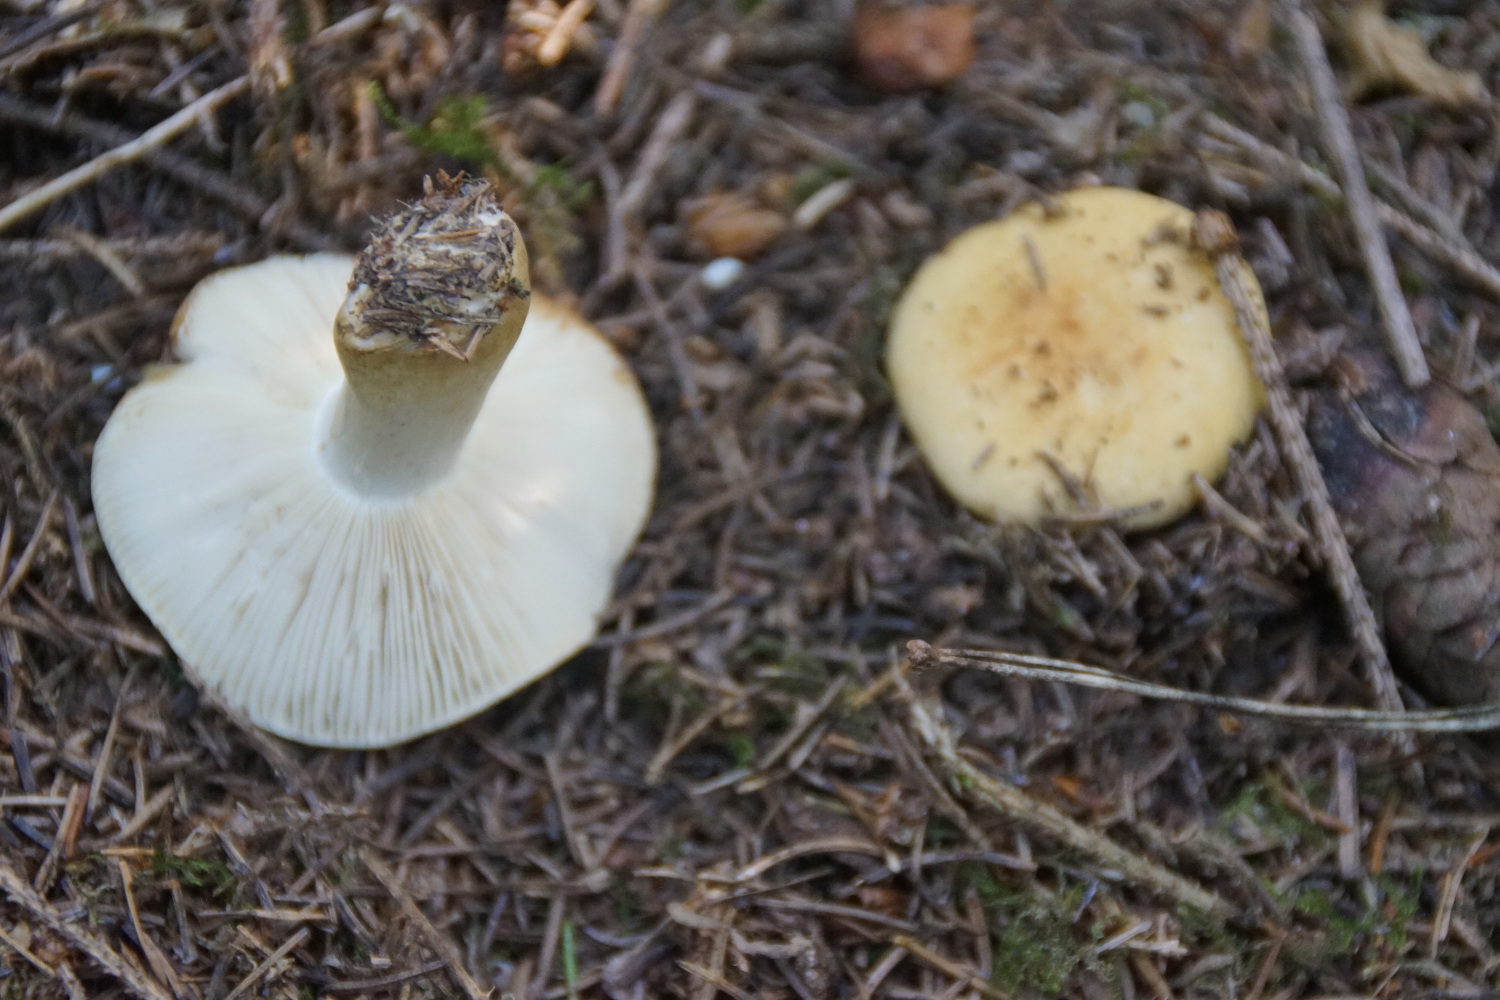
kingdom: Fungi
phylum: Basidiomycota
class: Agaricomycetes
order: Russulales
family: Russulaceae
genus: Russula
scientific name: Russula ochroleuca
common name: okkergul skørhat
